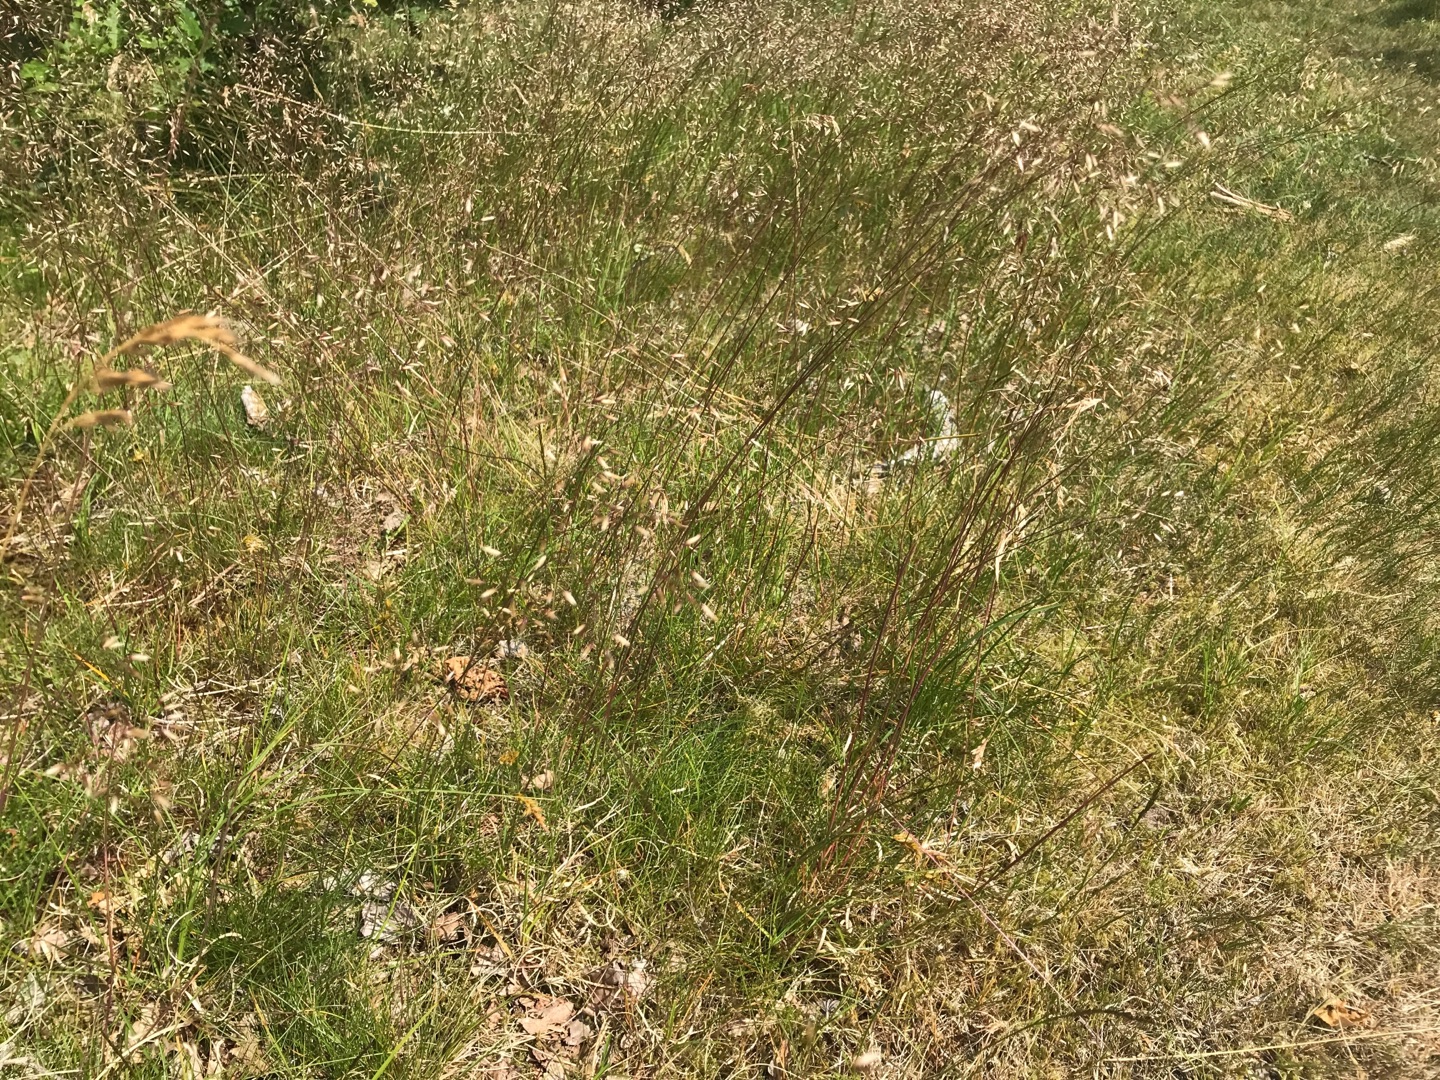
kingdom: Plantae
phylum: Tracheophyta
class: Liliopsida
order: Poales
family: Poaceae
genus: Avenella
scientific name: Avenella flexuosa
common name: Bølget bunke
